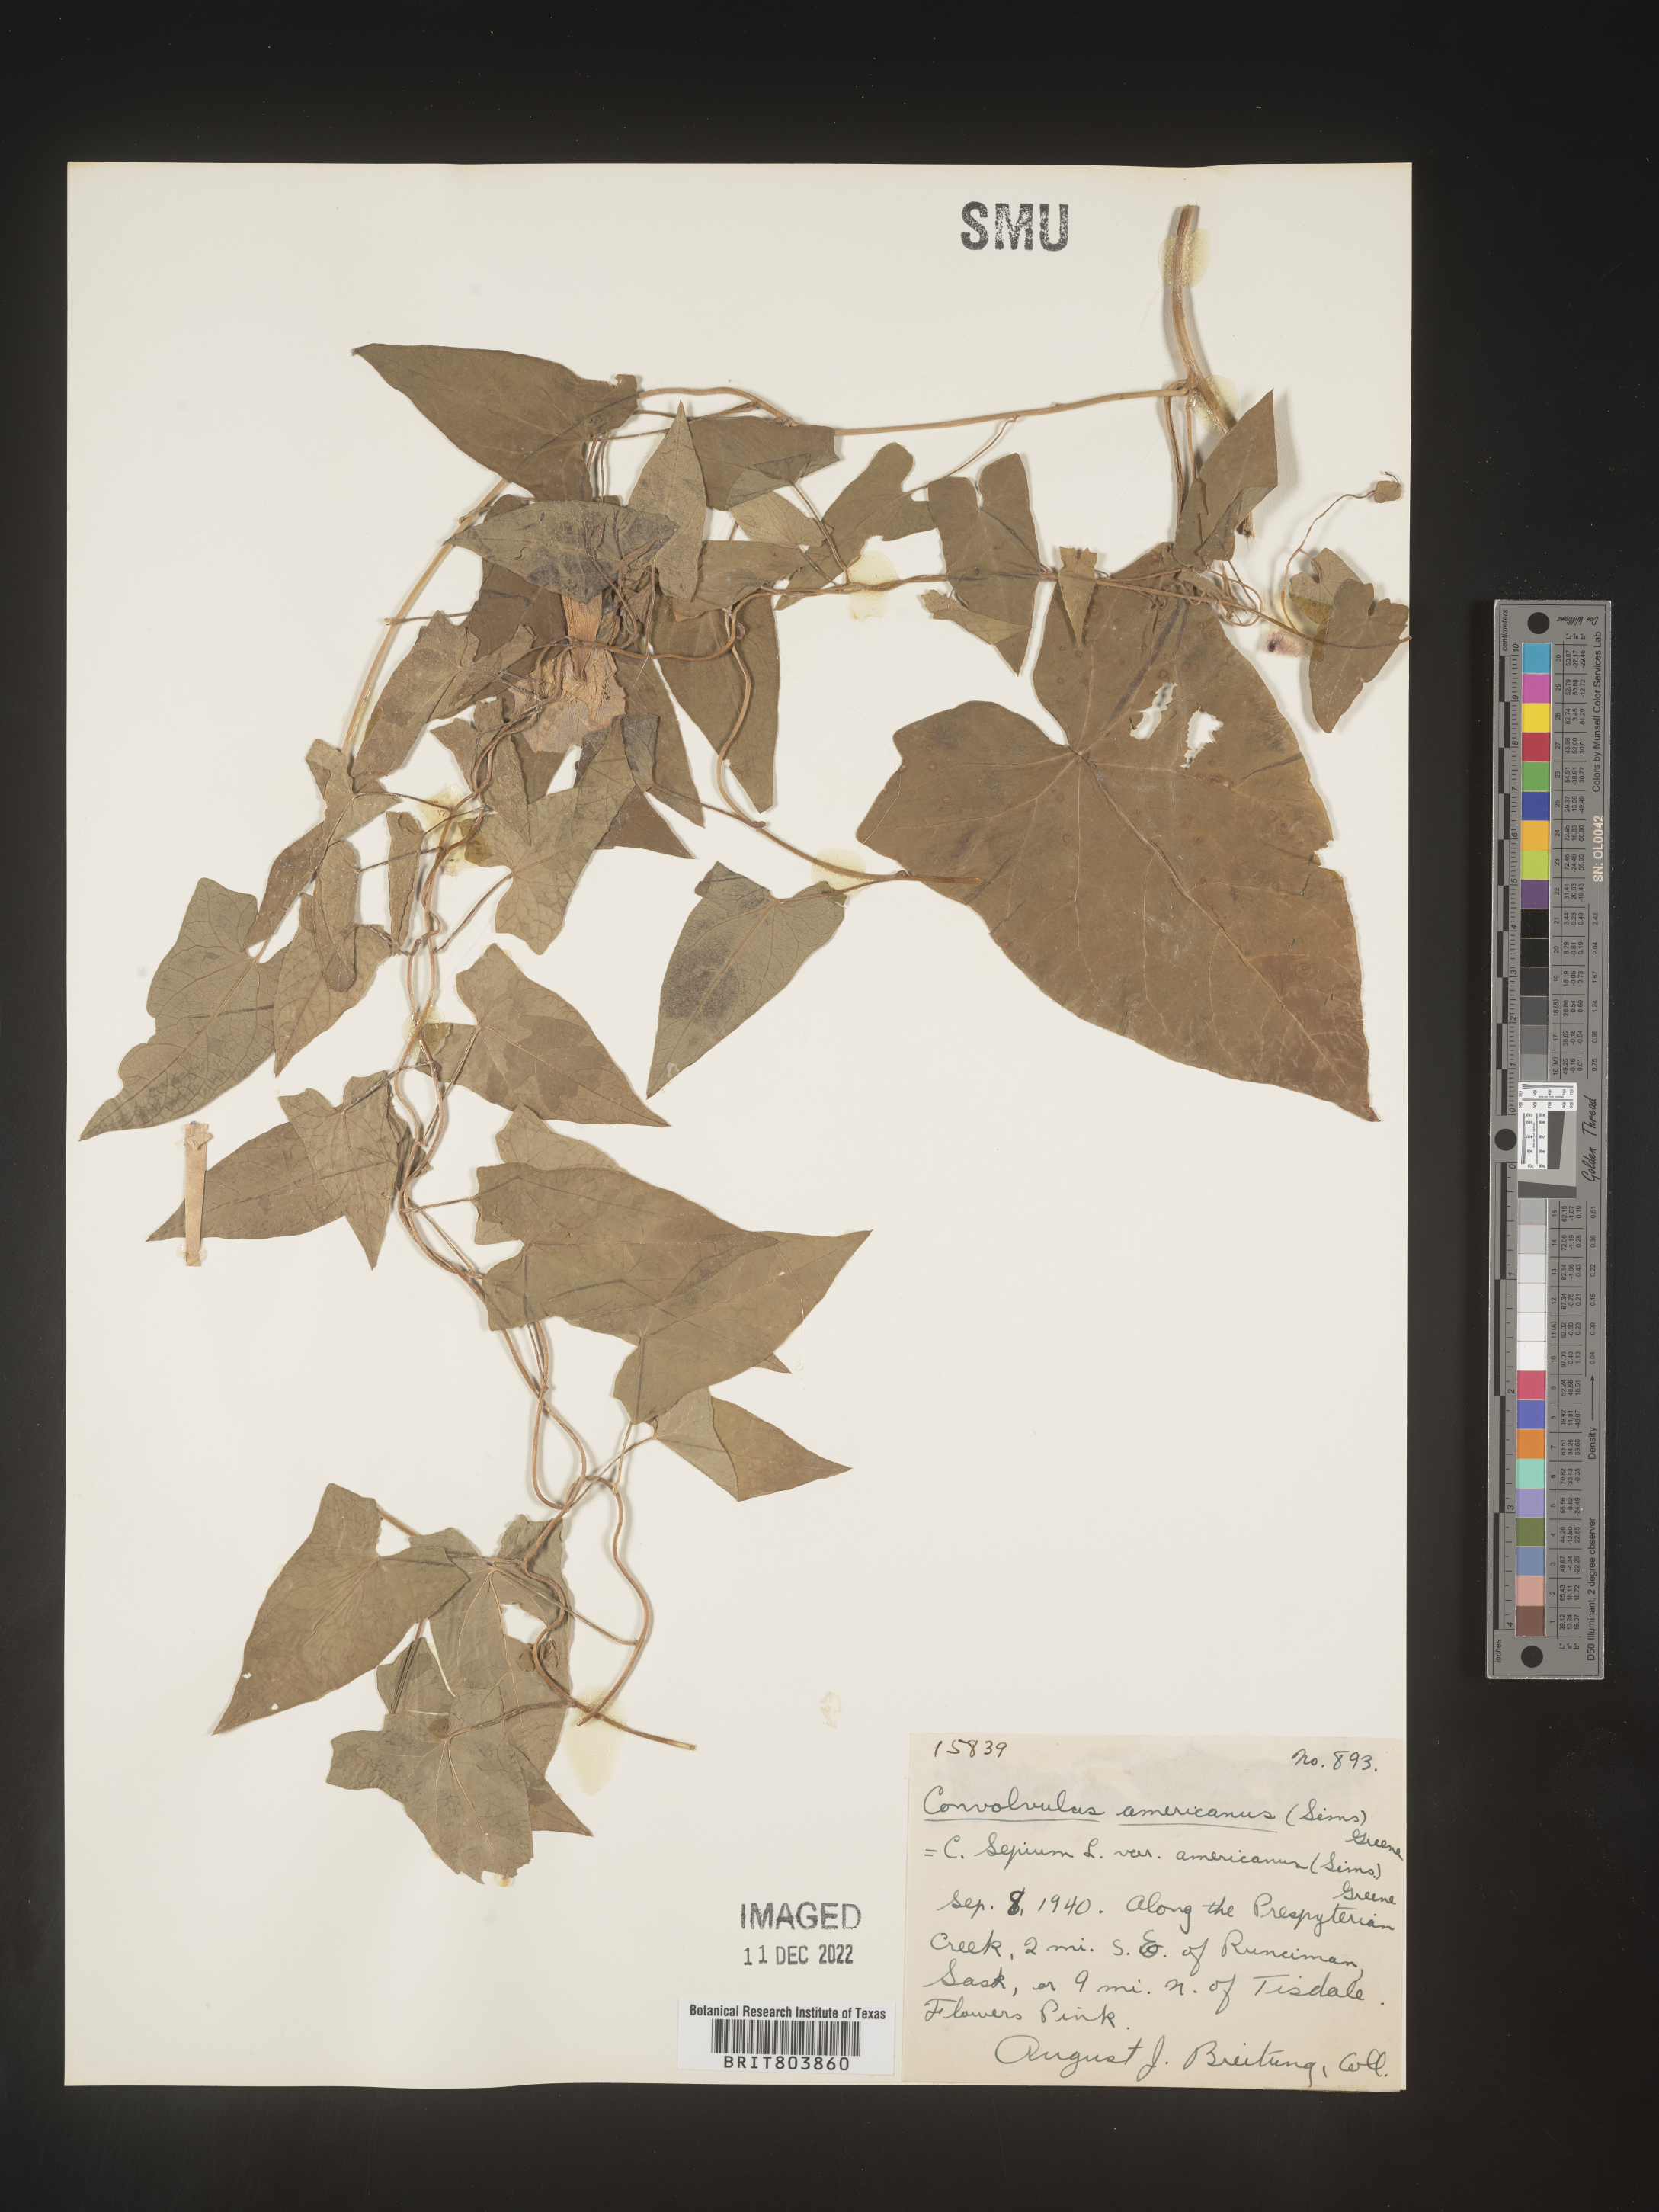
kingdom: Plantae
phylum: Tracheophyta
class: Magnoliopsida
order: Solanales
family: Convolvulaceae
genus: Calystegia
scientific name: Calystegia sepium
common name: Hedge bindweed
